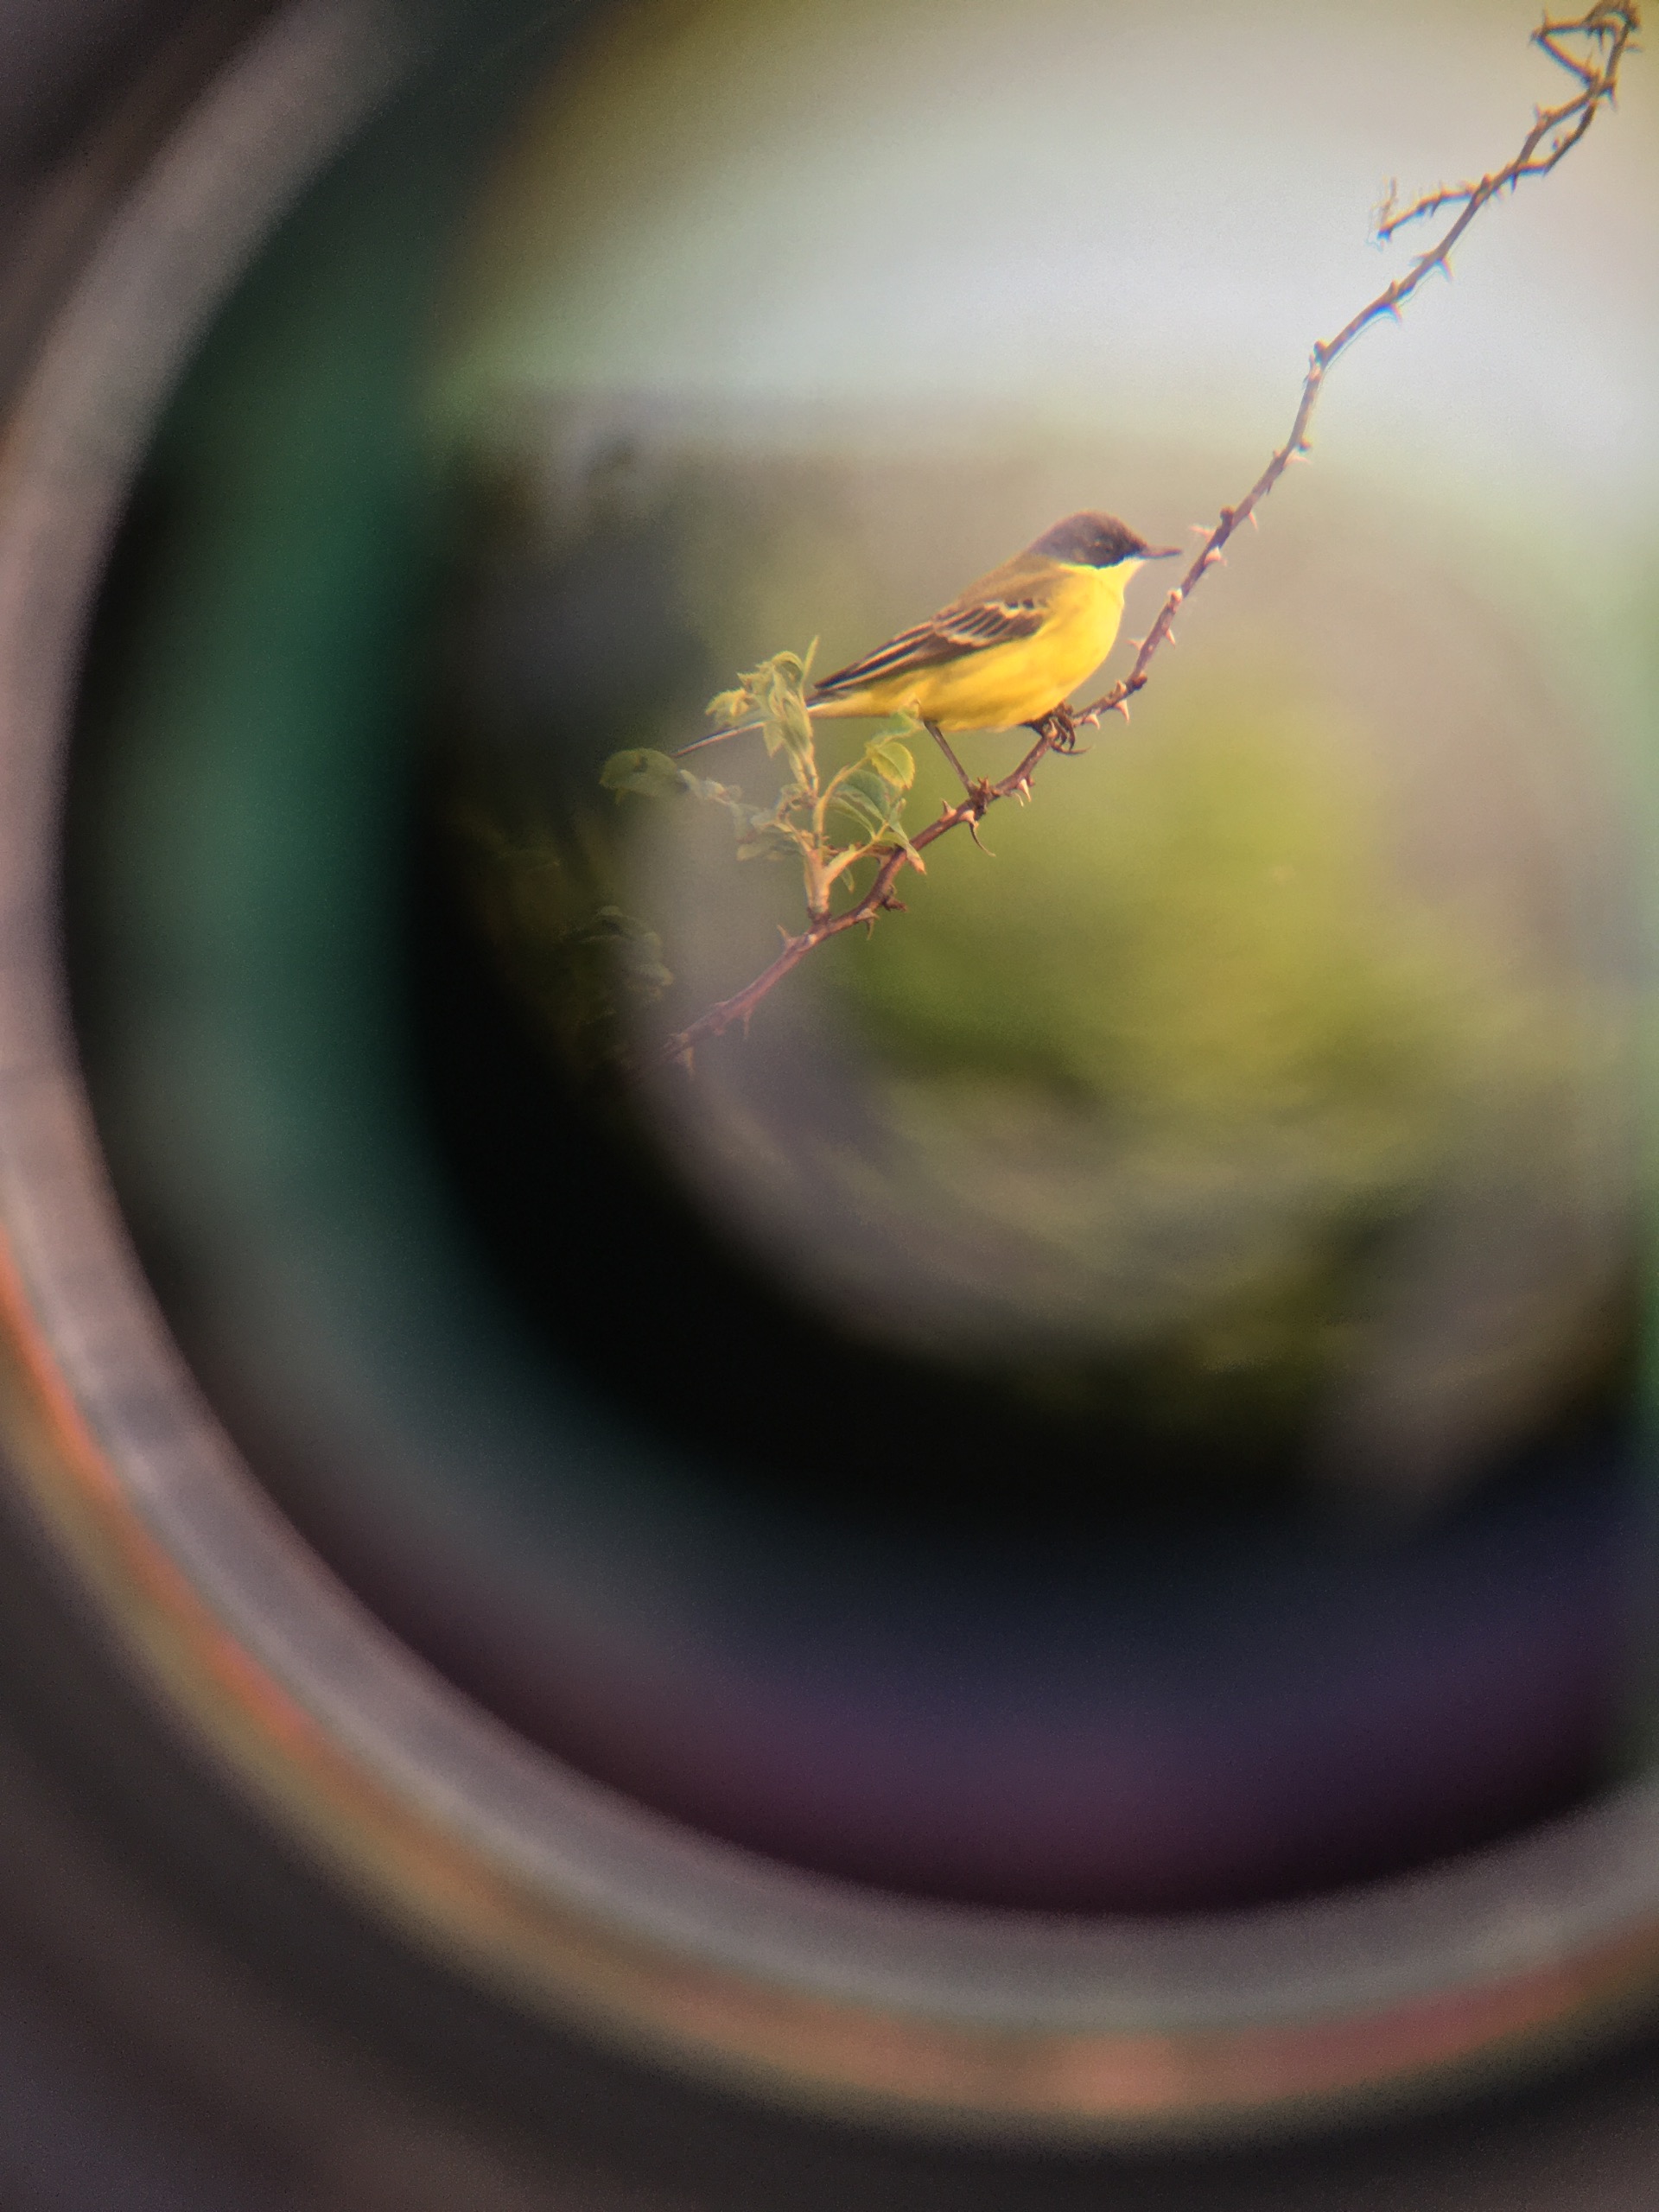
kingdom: Animalia
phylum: Chordata
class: Aves
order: Passeriformes
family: Motacillidae
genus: Motacilla
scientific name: Motacilla flava
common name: Nordlig vipstjert
